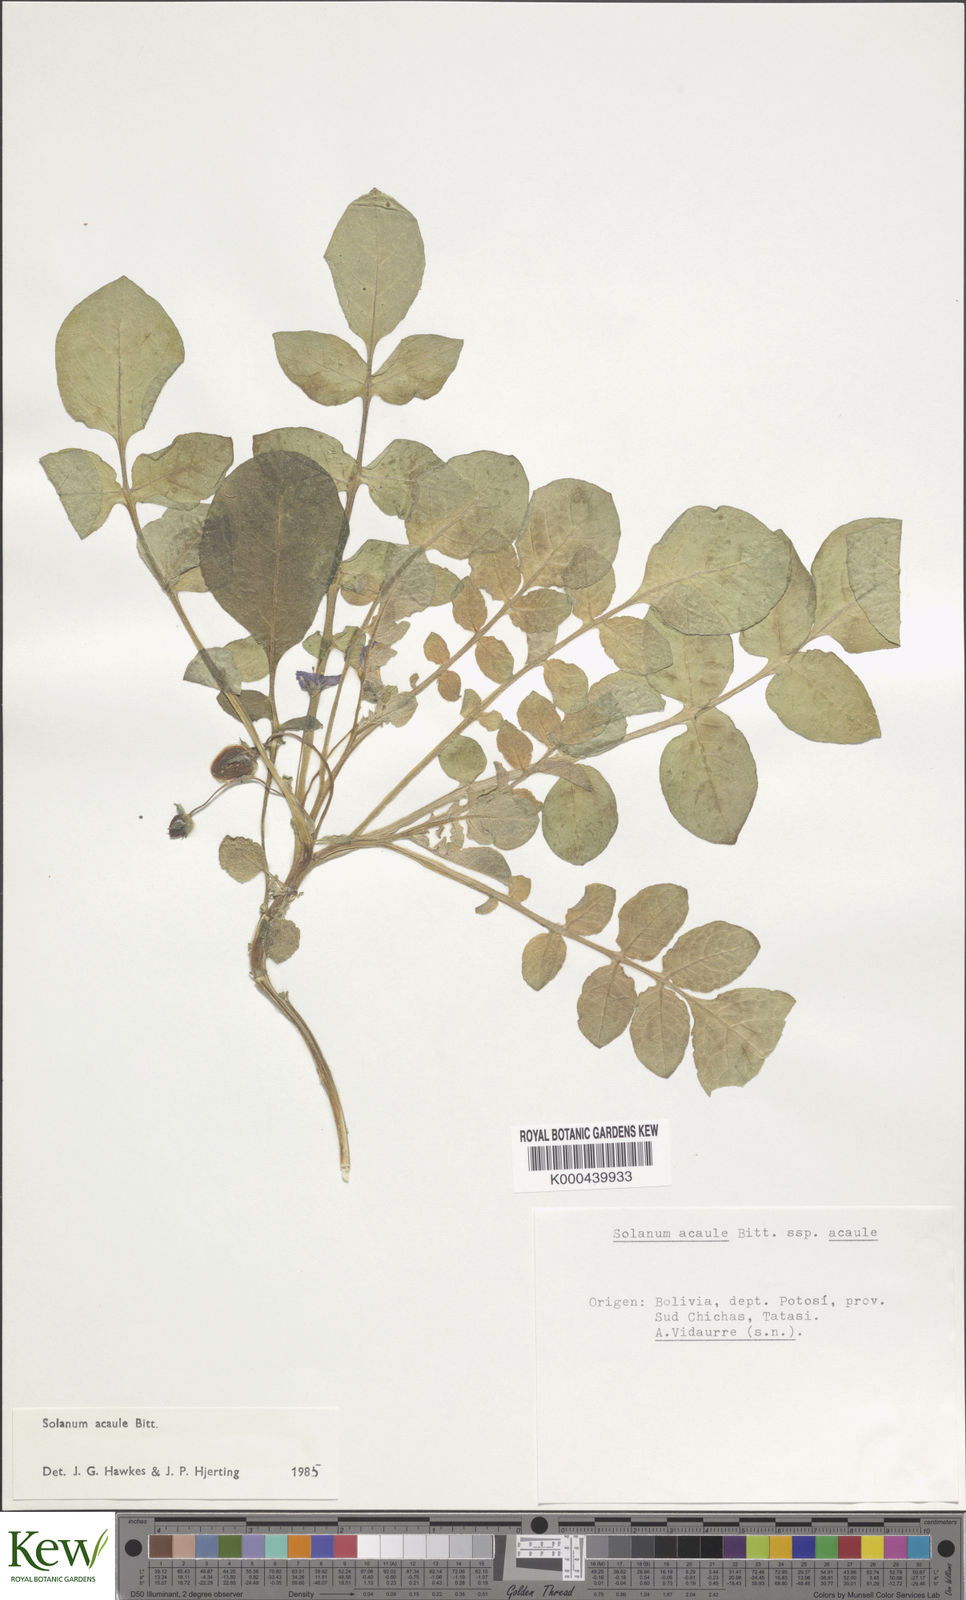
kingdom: Plantae
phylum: Tracheophyta
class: Magnoliopsida
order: Solanales
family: Solanaceae
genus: Solanum
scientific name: Solanum acaule
